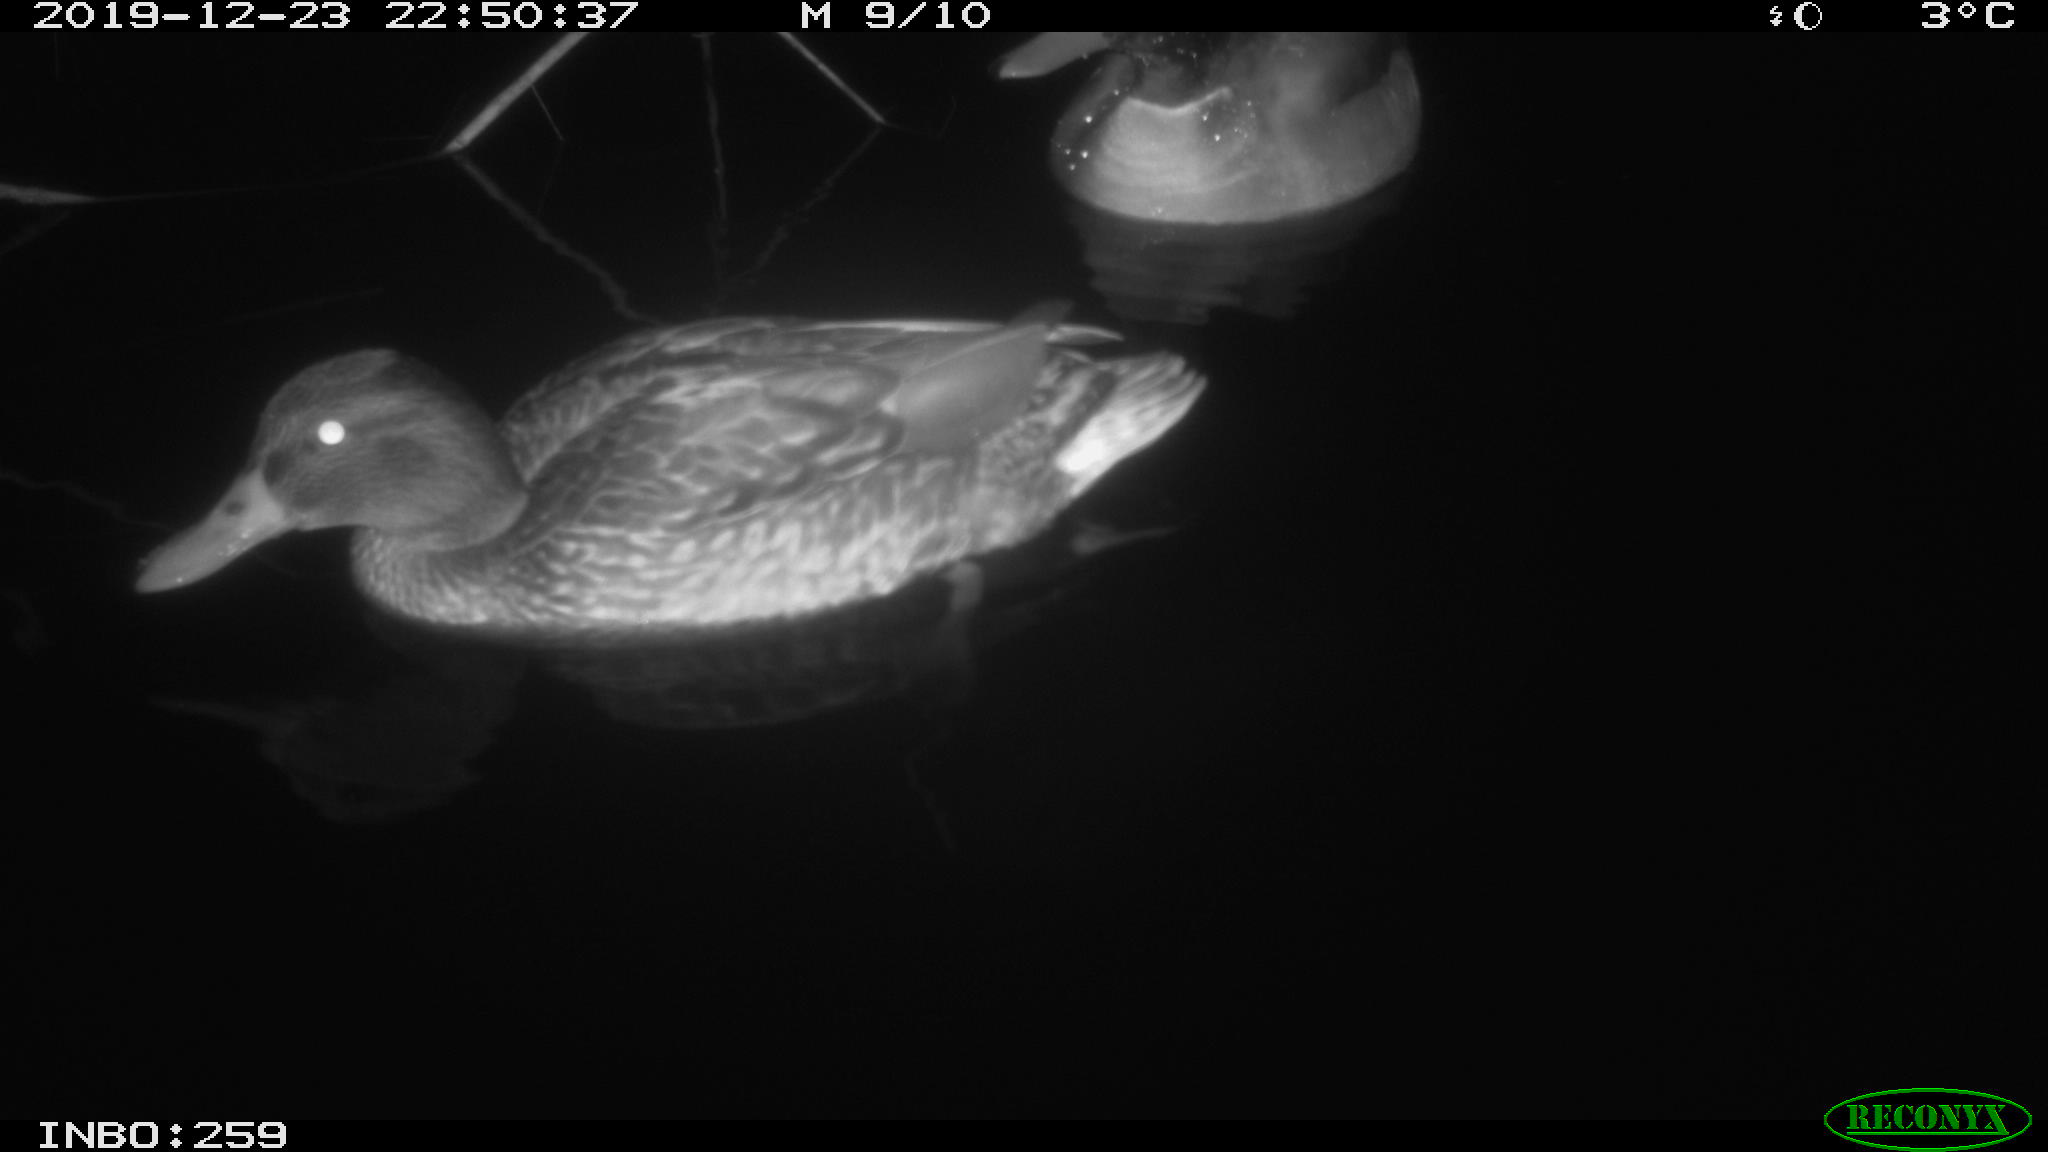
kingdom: Animalia
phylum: Chordata
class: Aves
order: Anseriformes
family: Anatidae
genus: Anas
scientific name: Anas platyrhynchos
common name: Mallard
